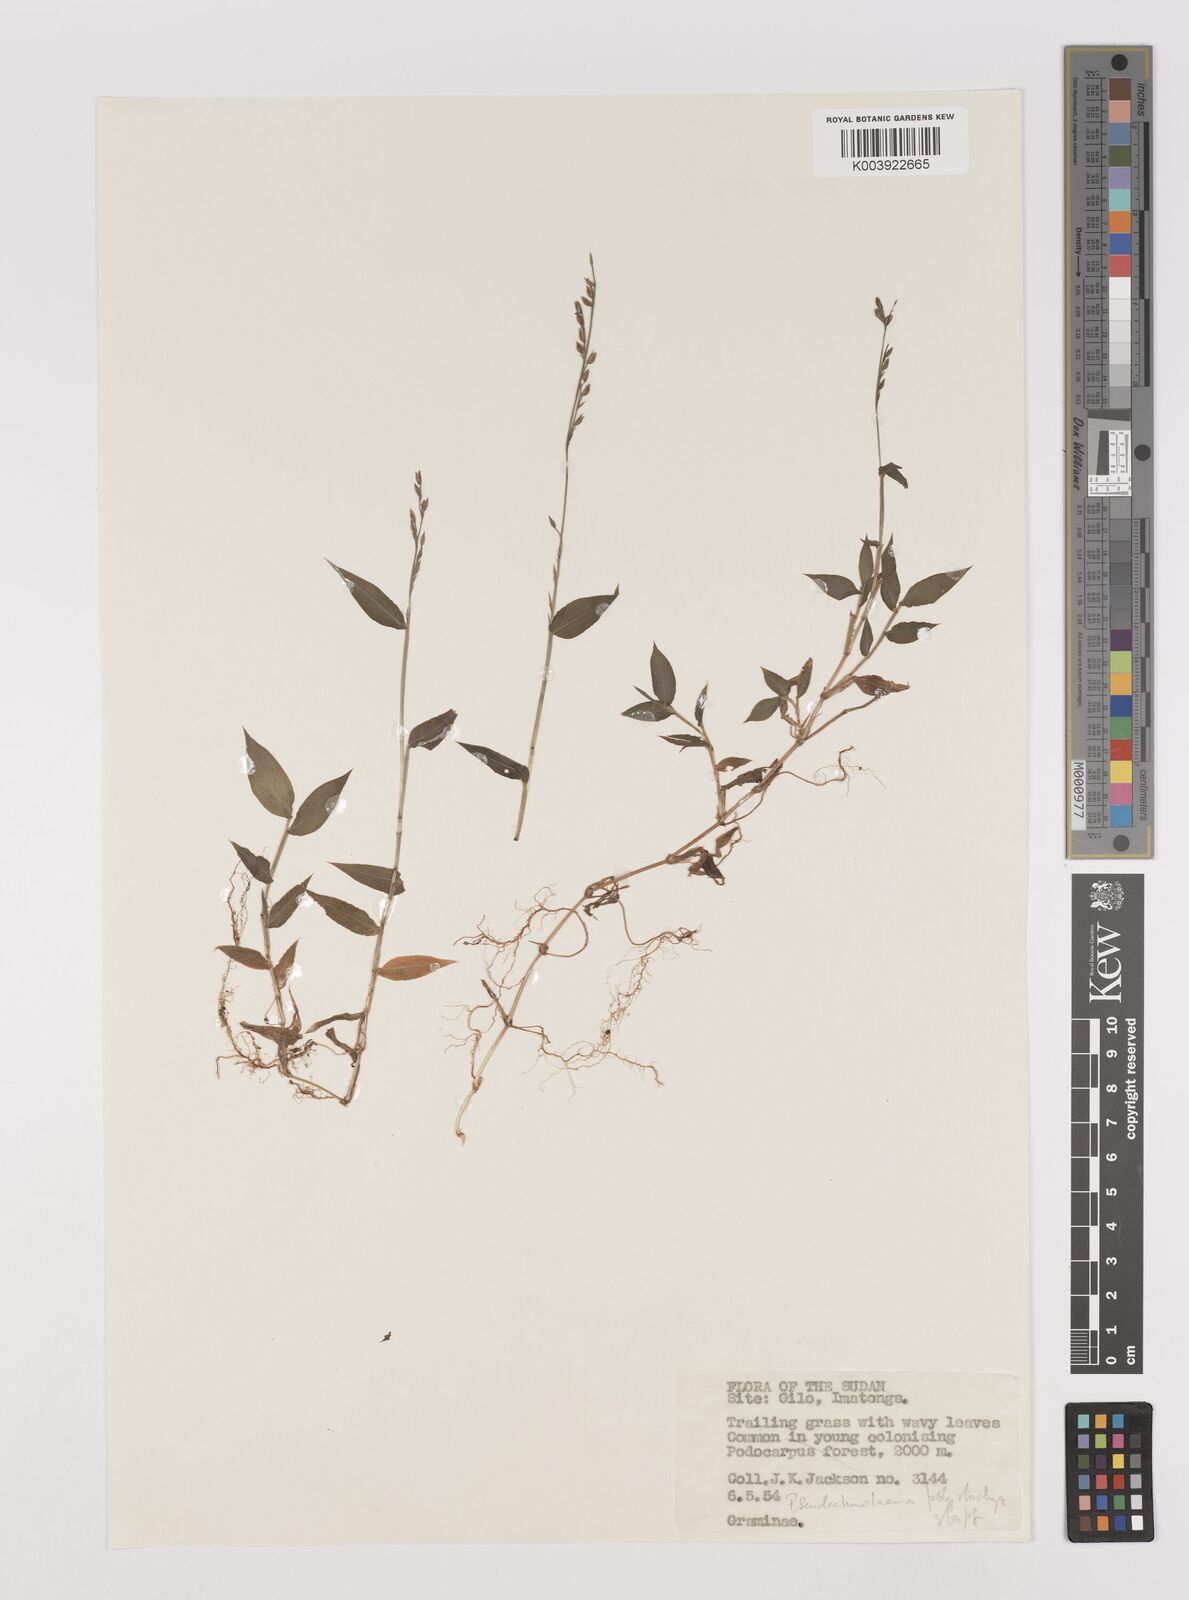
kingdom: Plantae
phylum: Tracheophyta
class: Liliopsida
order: Poales
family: Poaceae
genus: Pseudechinolaena
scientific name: Pseudechinolaena polystachya
